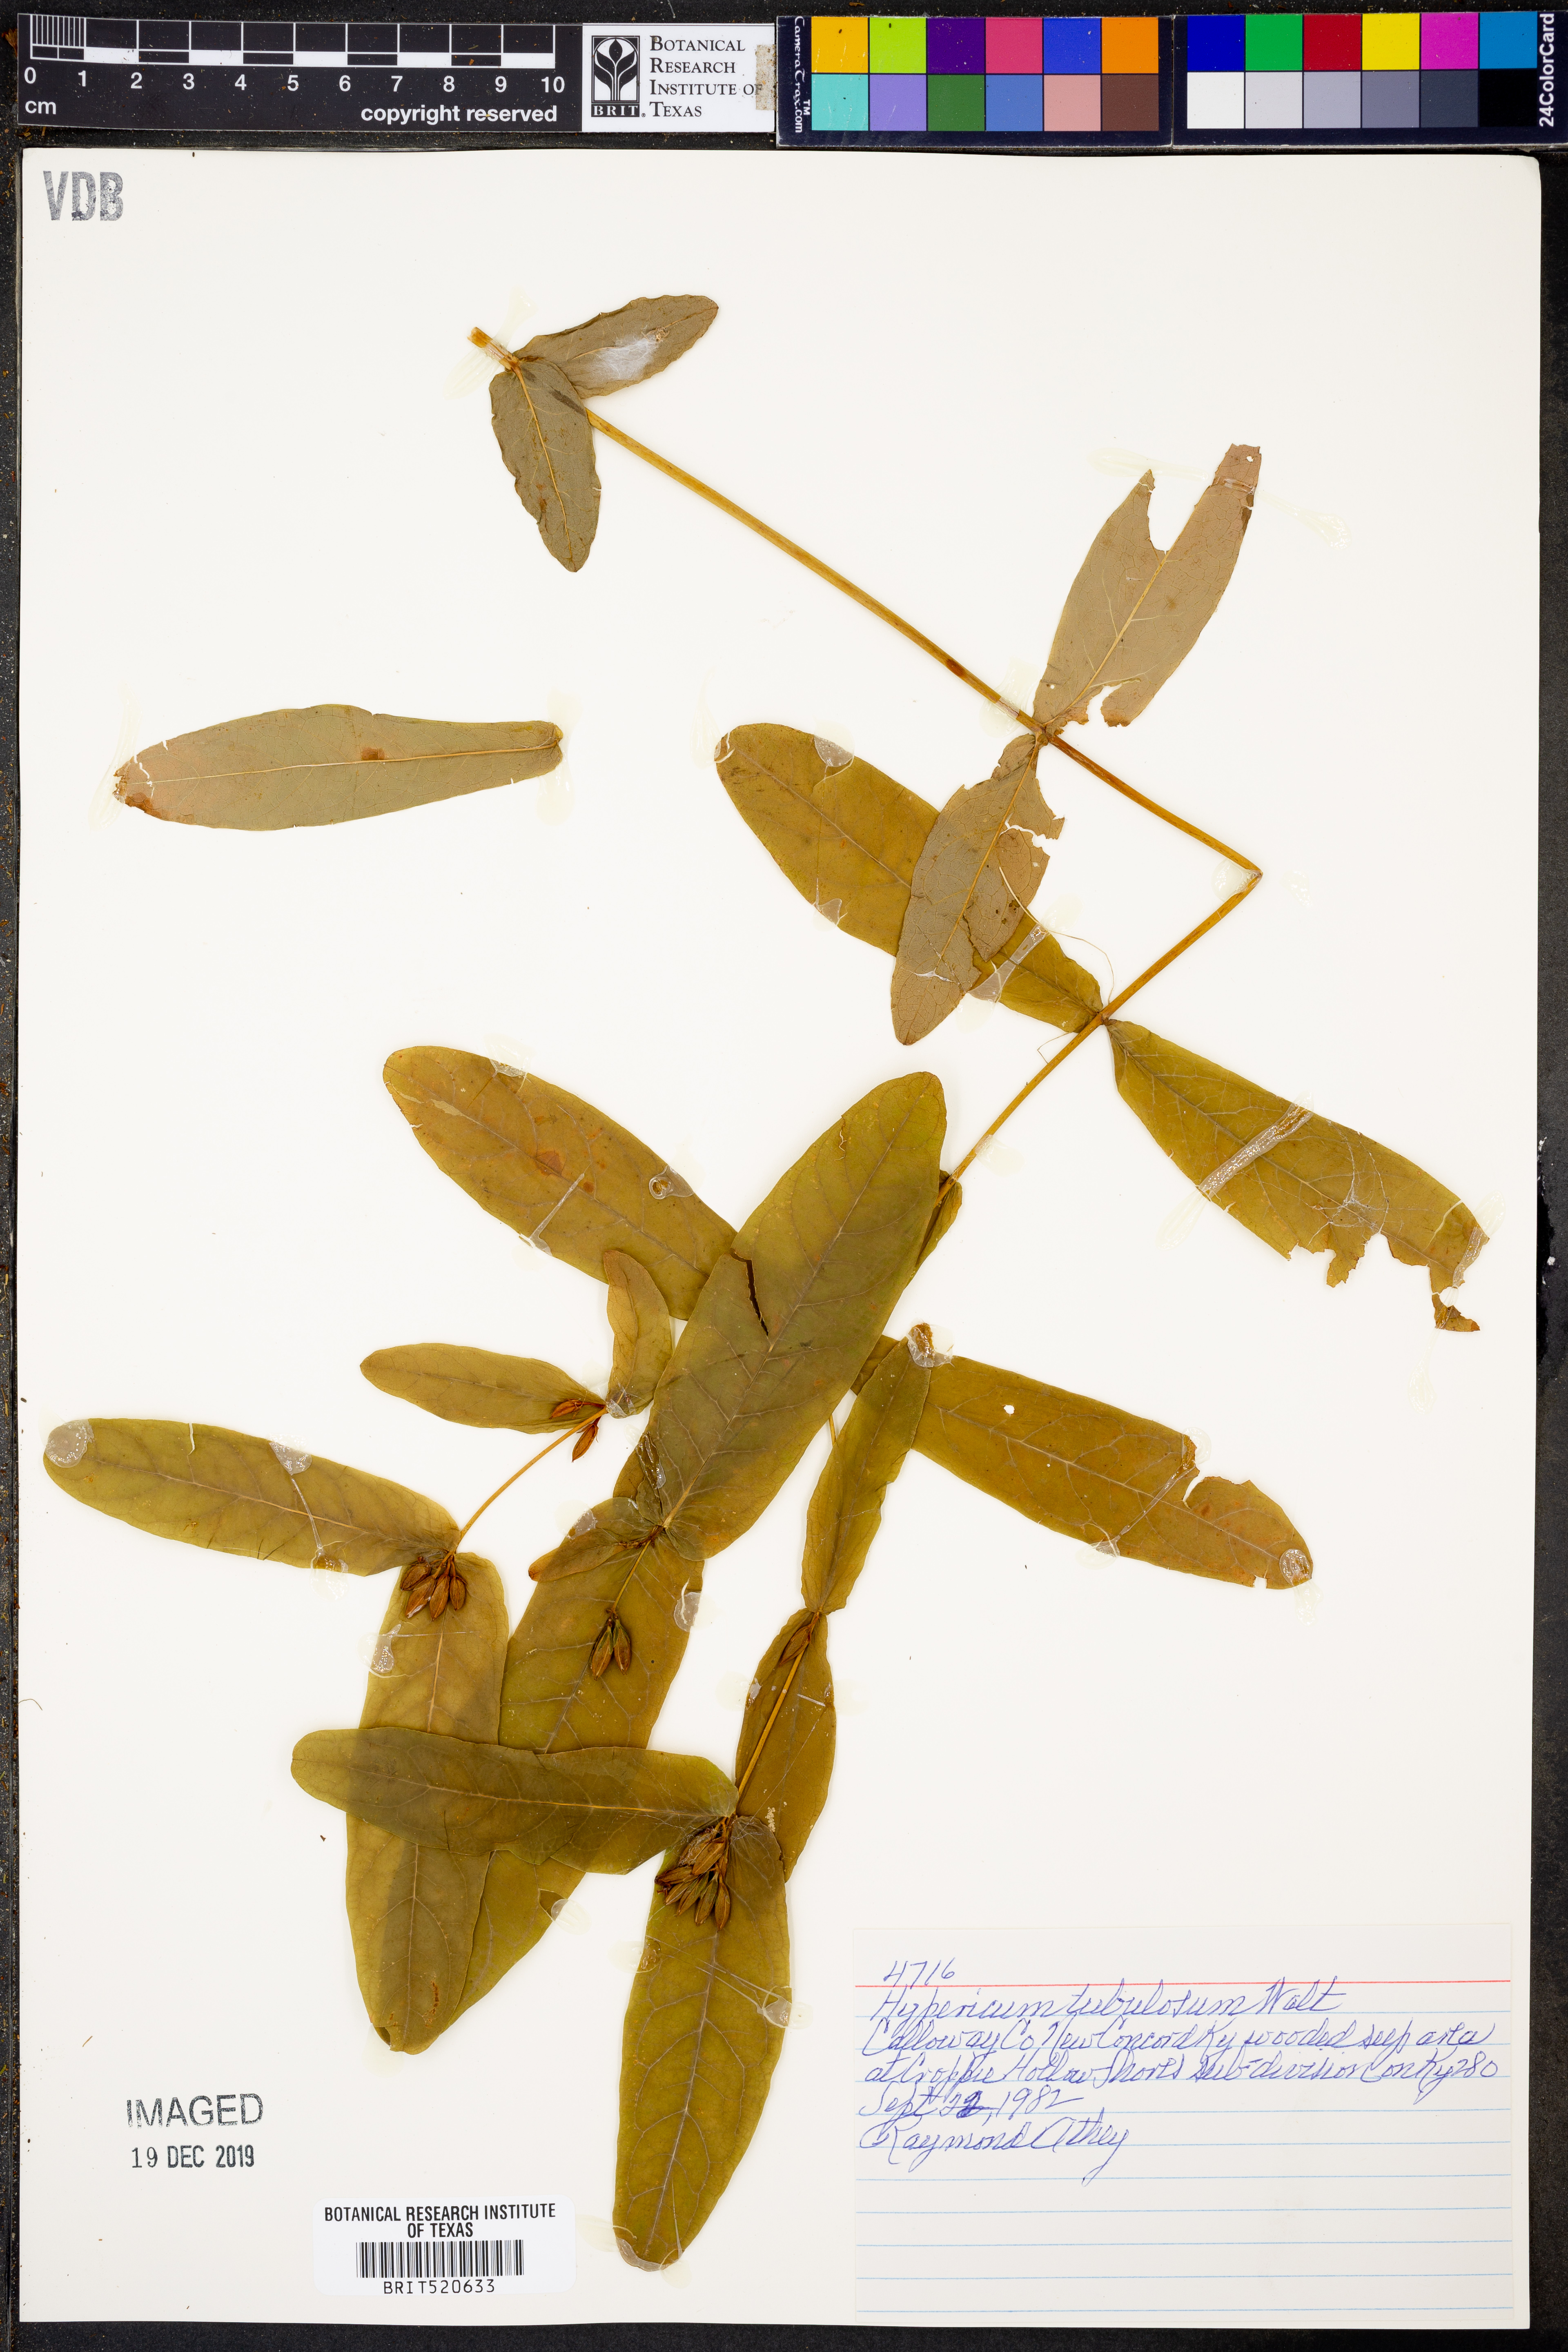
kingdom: Plantae
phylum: Tracheophyta
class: Magnoliopsida
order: Malpighiales
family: Hypericaceae
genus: Triadenum
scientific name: Triadenum tubulosum
